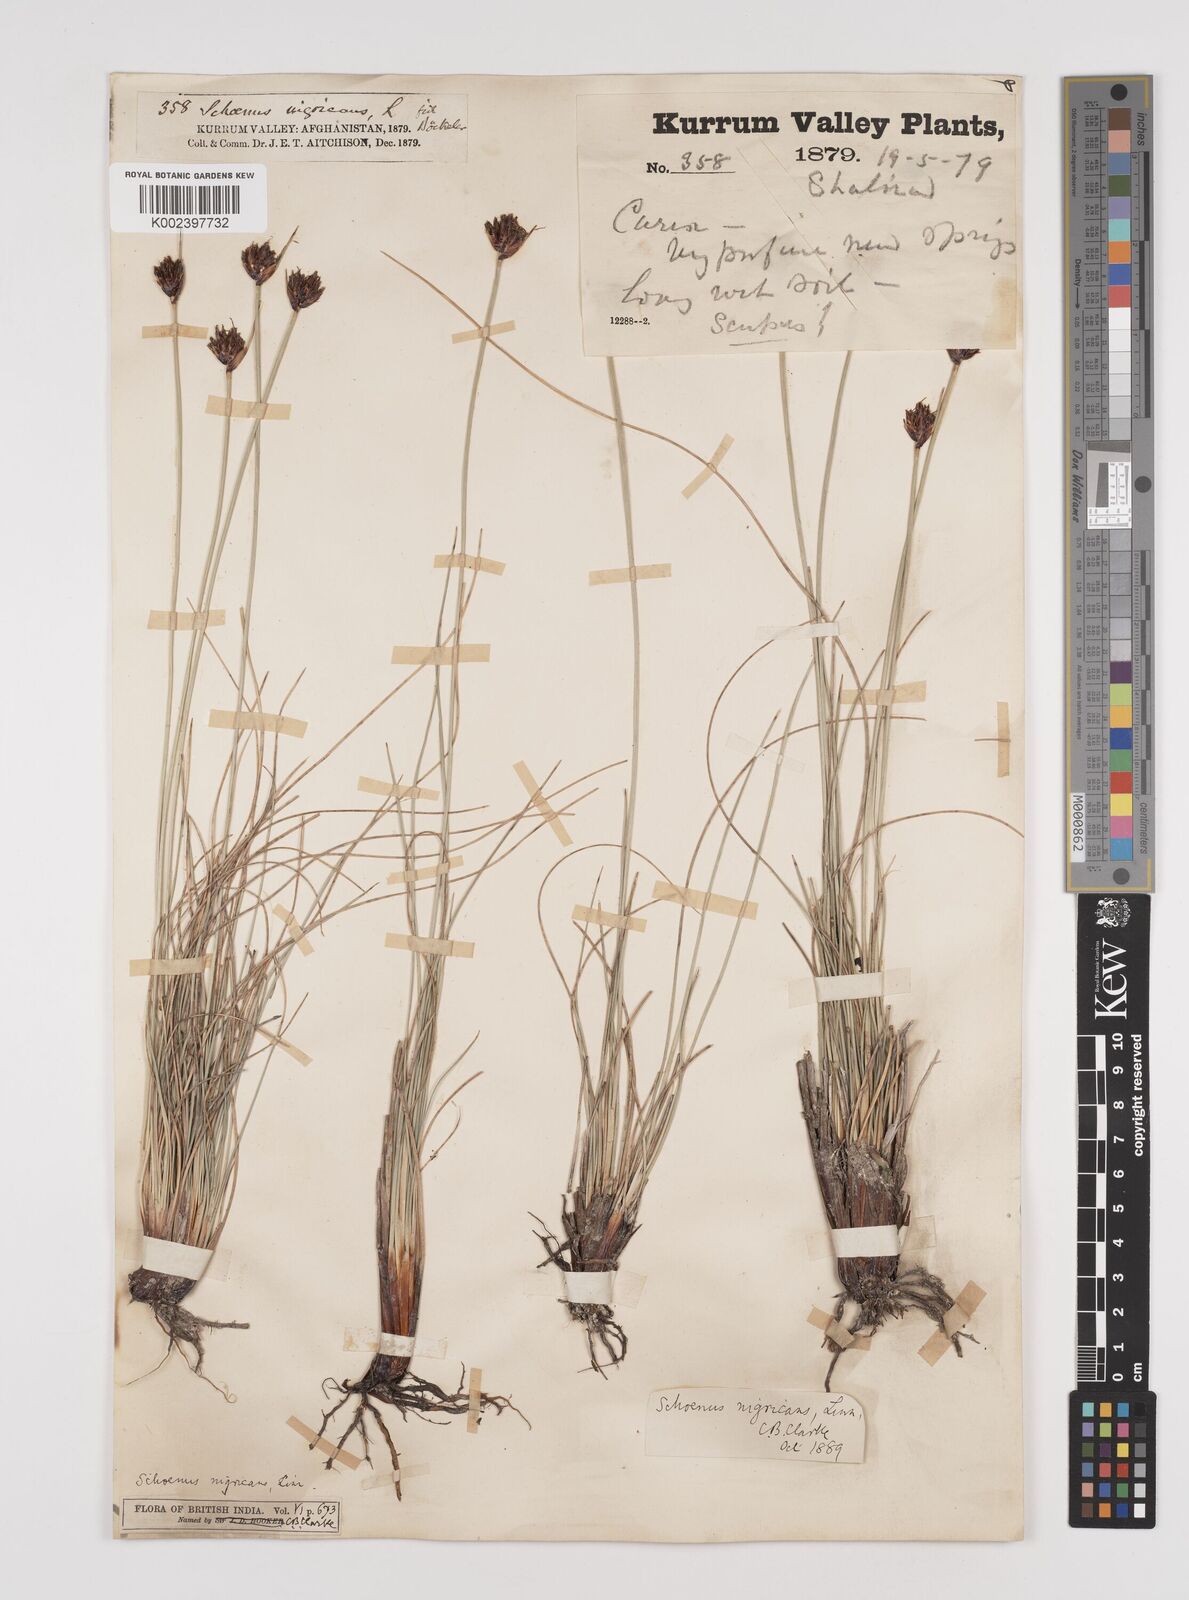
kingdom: Plantae
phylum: Tracheophyta
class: Liliopsida
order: Poales
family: Cyperaceae
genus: Schoenus
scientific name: Schoenus nigricans
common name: Black bog-rush
